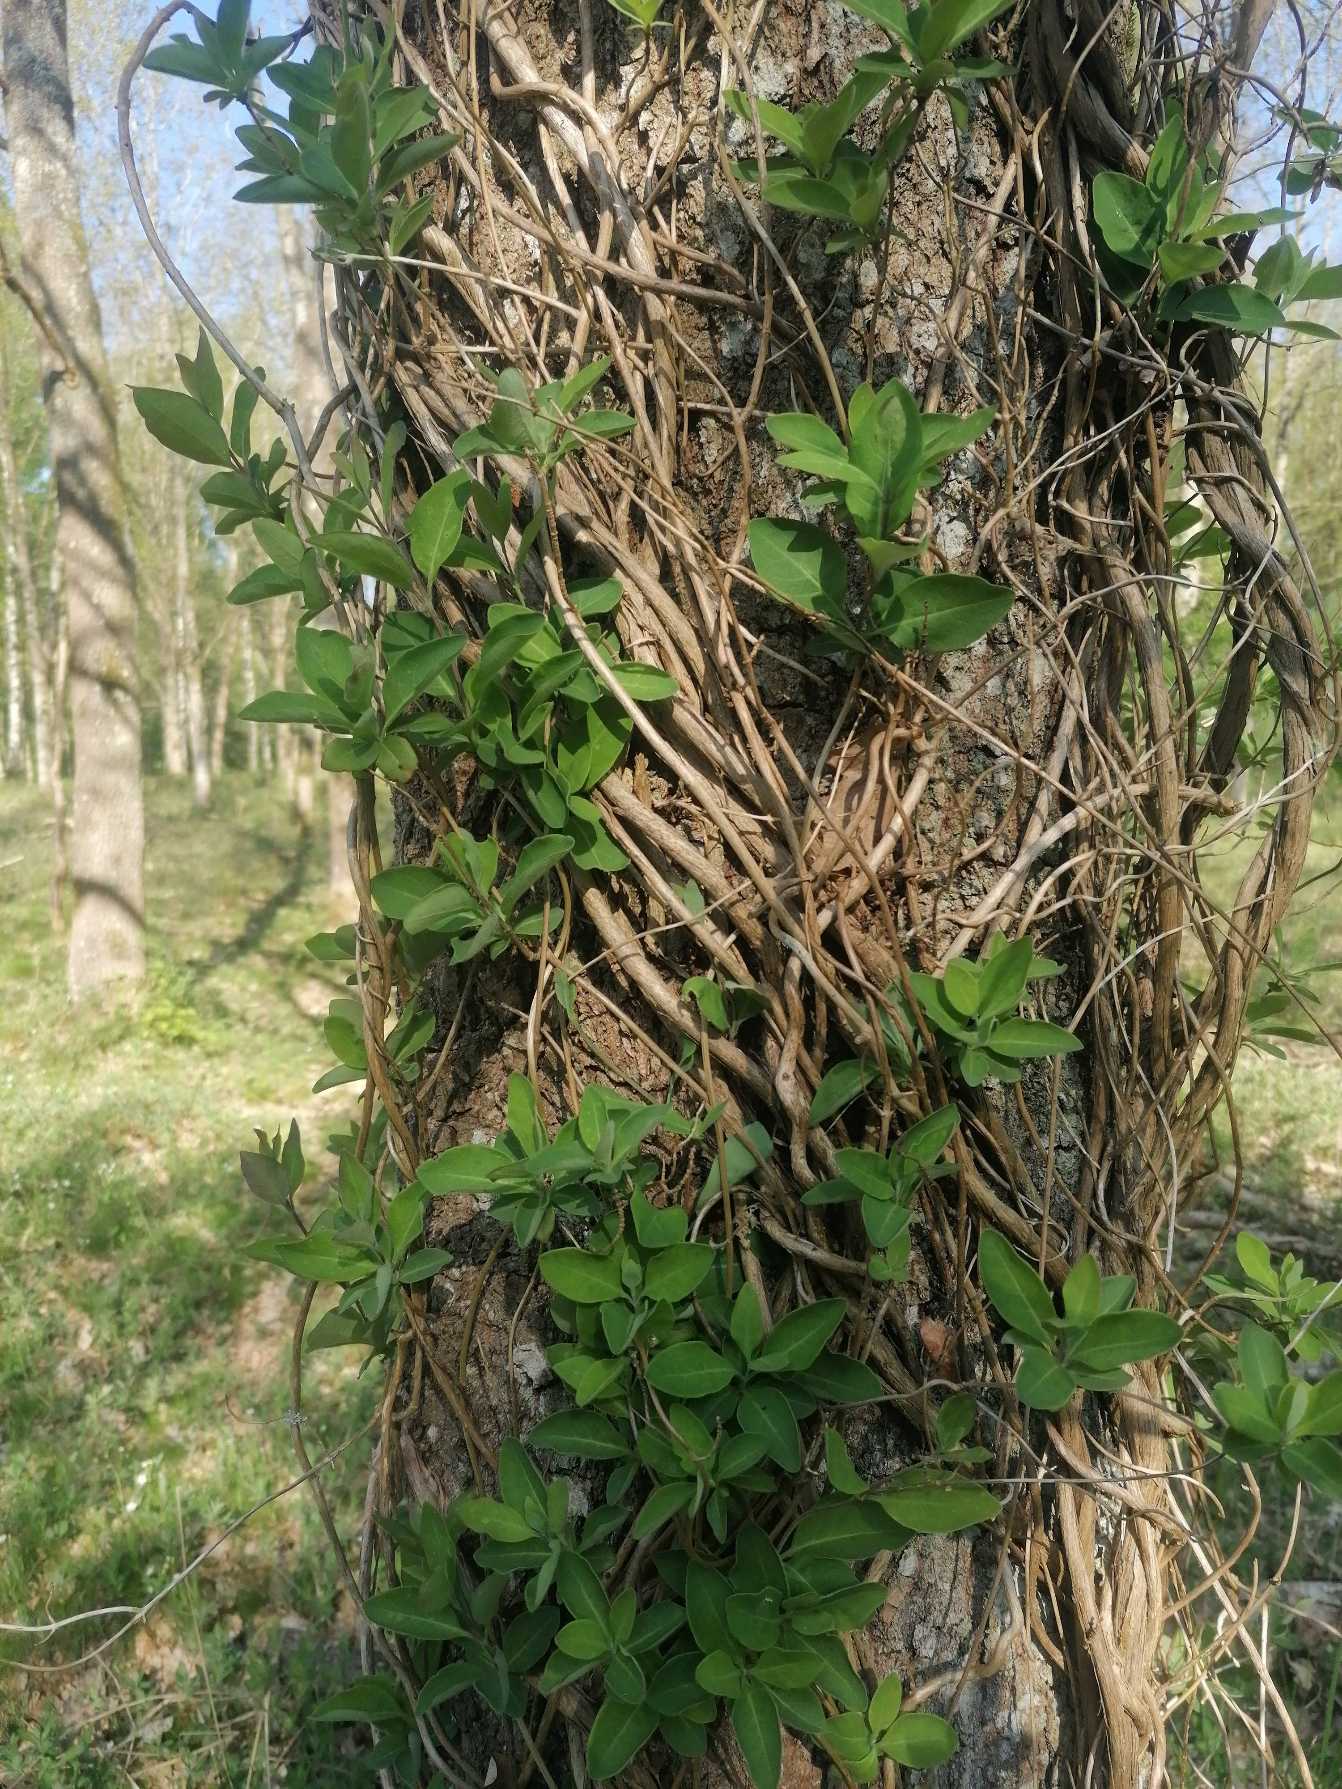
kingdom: Plantae
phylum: Tracheophyta
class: Magnoliopsida
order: Dipsacales
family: Caprifoliaceae
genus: Lonicera
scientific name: Lonicera periclymenum
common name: Almindelig gedeblad
